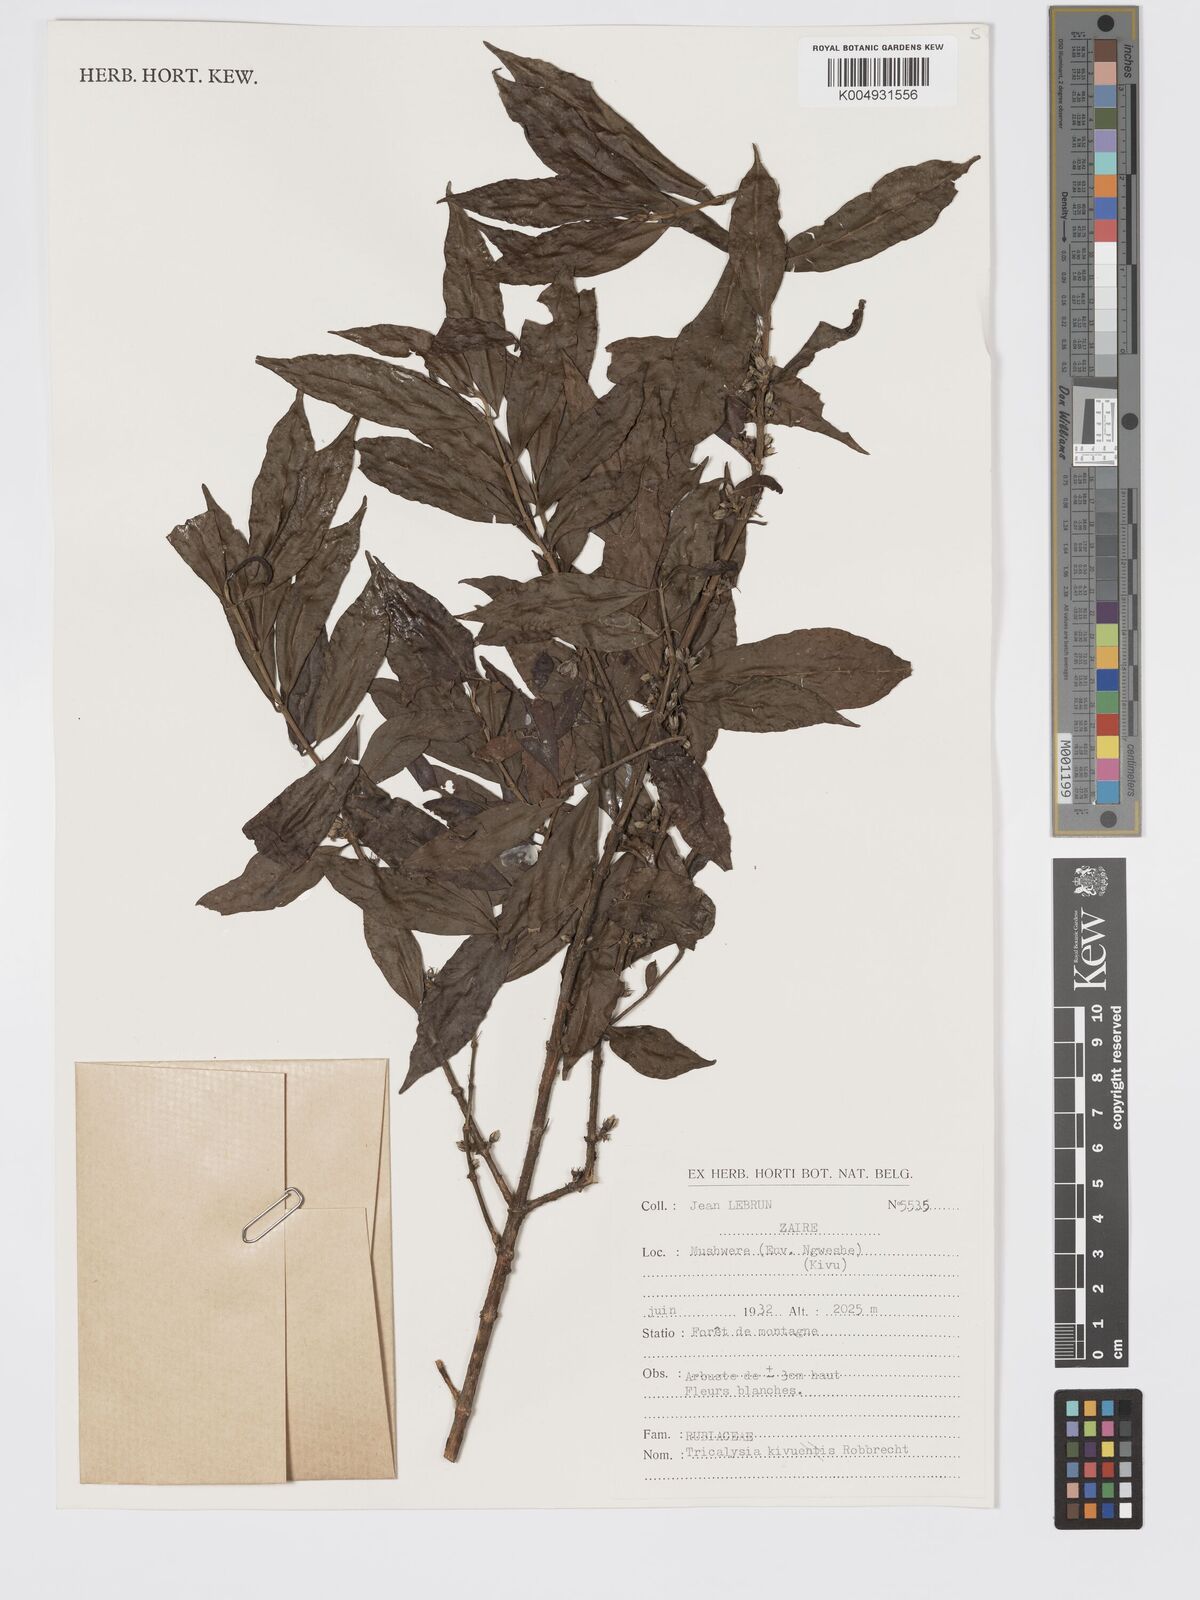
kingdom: Plantae
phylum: Tracheophyta
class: Magnoliopsida
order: Gentianales
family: Rubiaceae
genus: Tricalysia
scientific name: Tricalysia kivuensis
